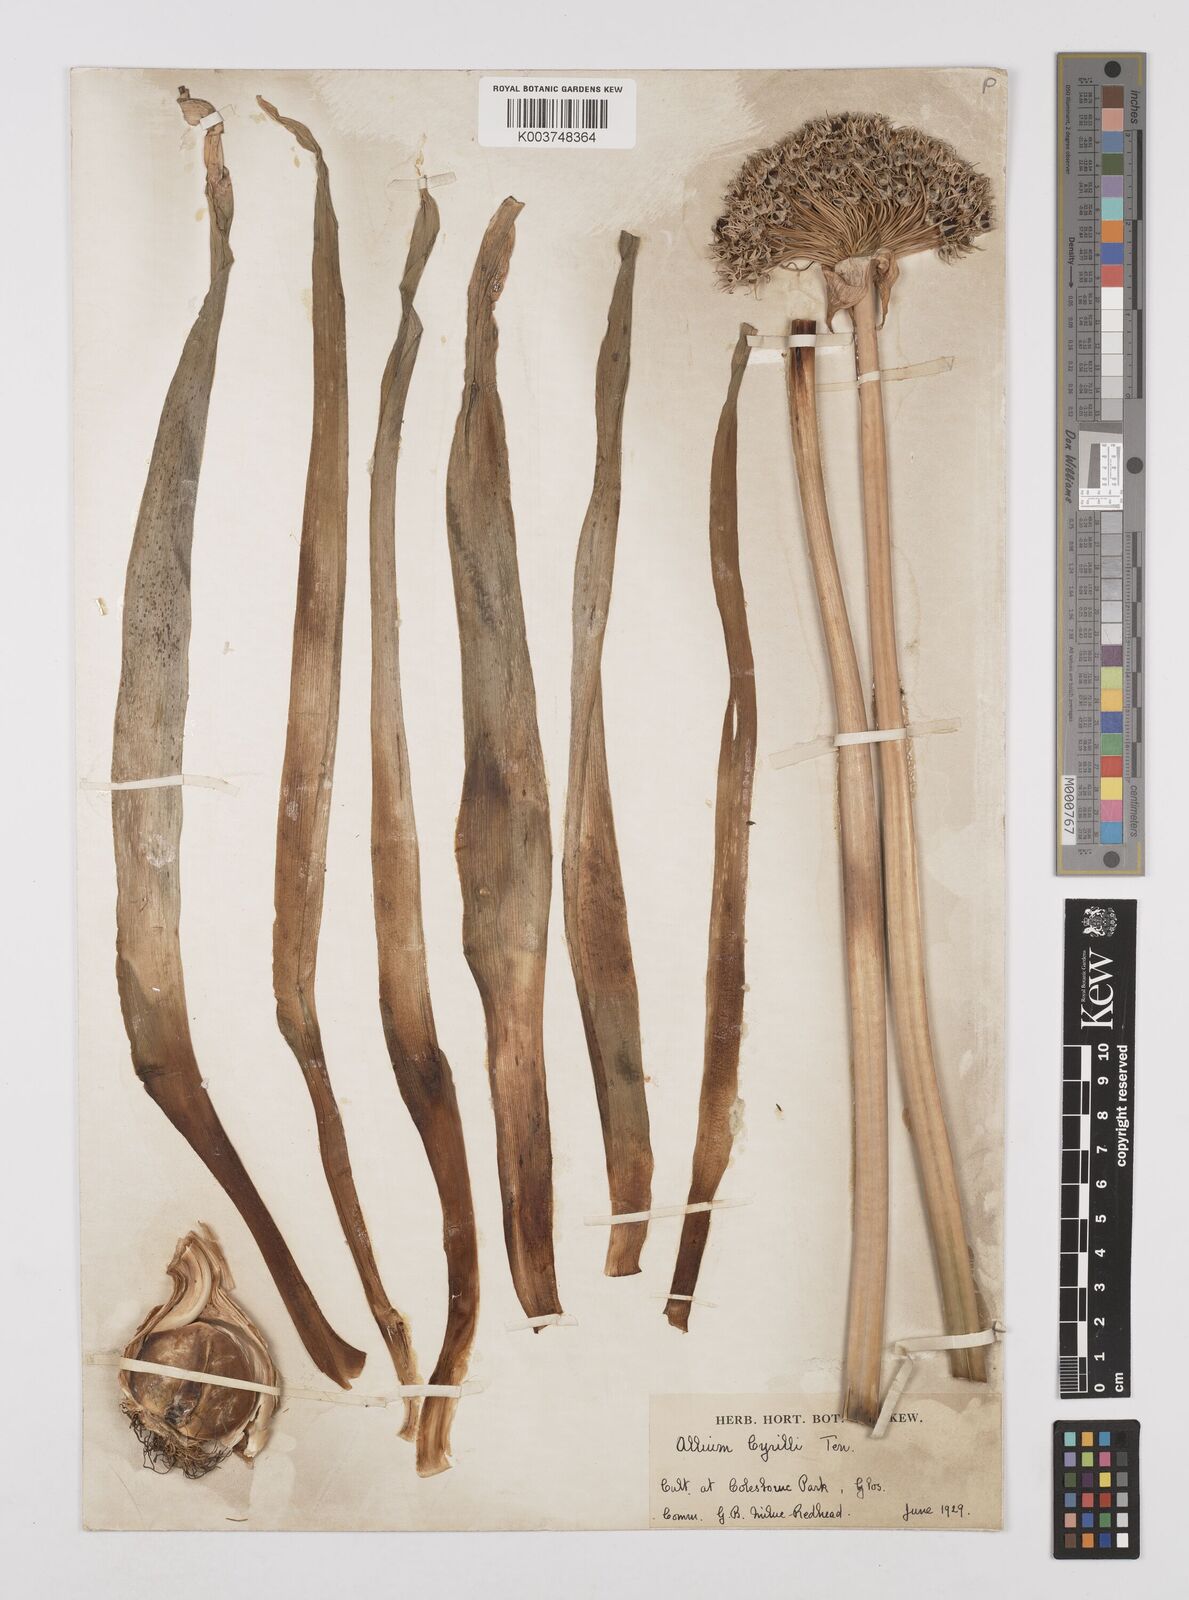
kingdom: Plantae
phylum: Tracheophyta
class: Liliopsida
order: Asparagales
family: Amaryllidaceae
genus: Allium
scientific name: Allium cyrilli
